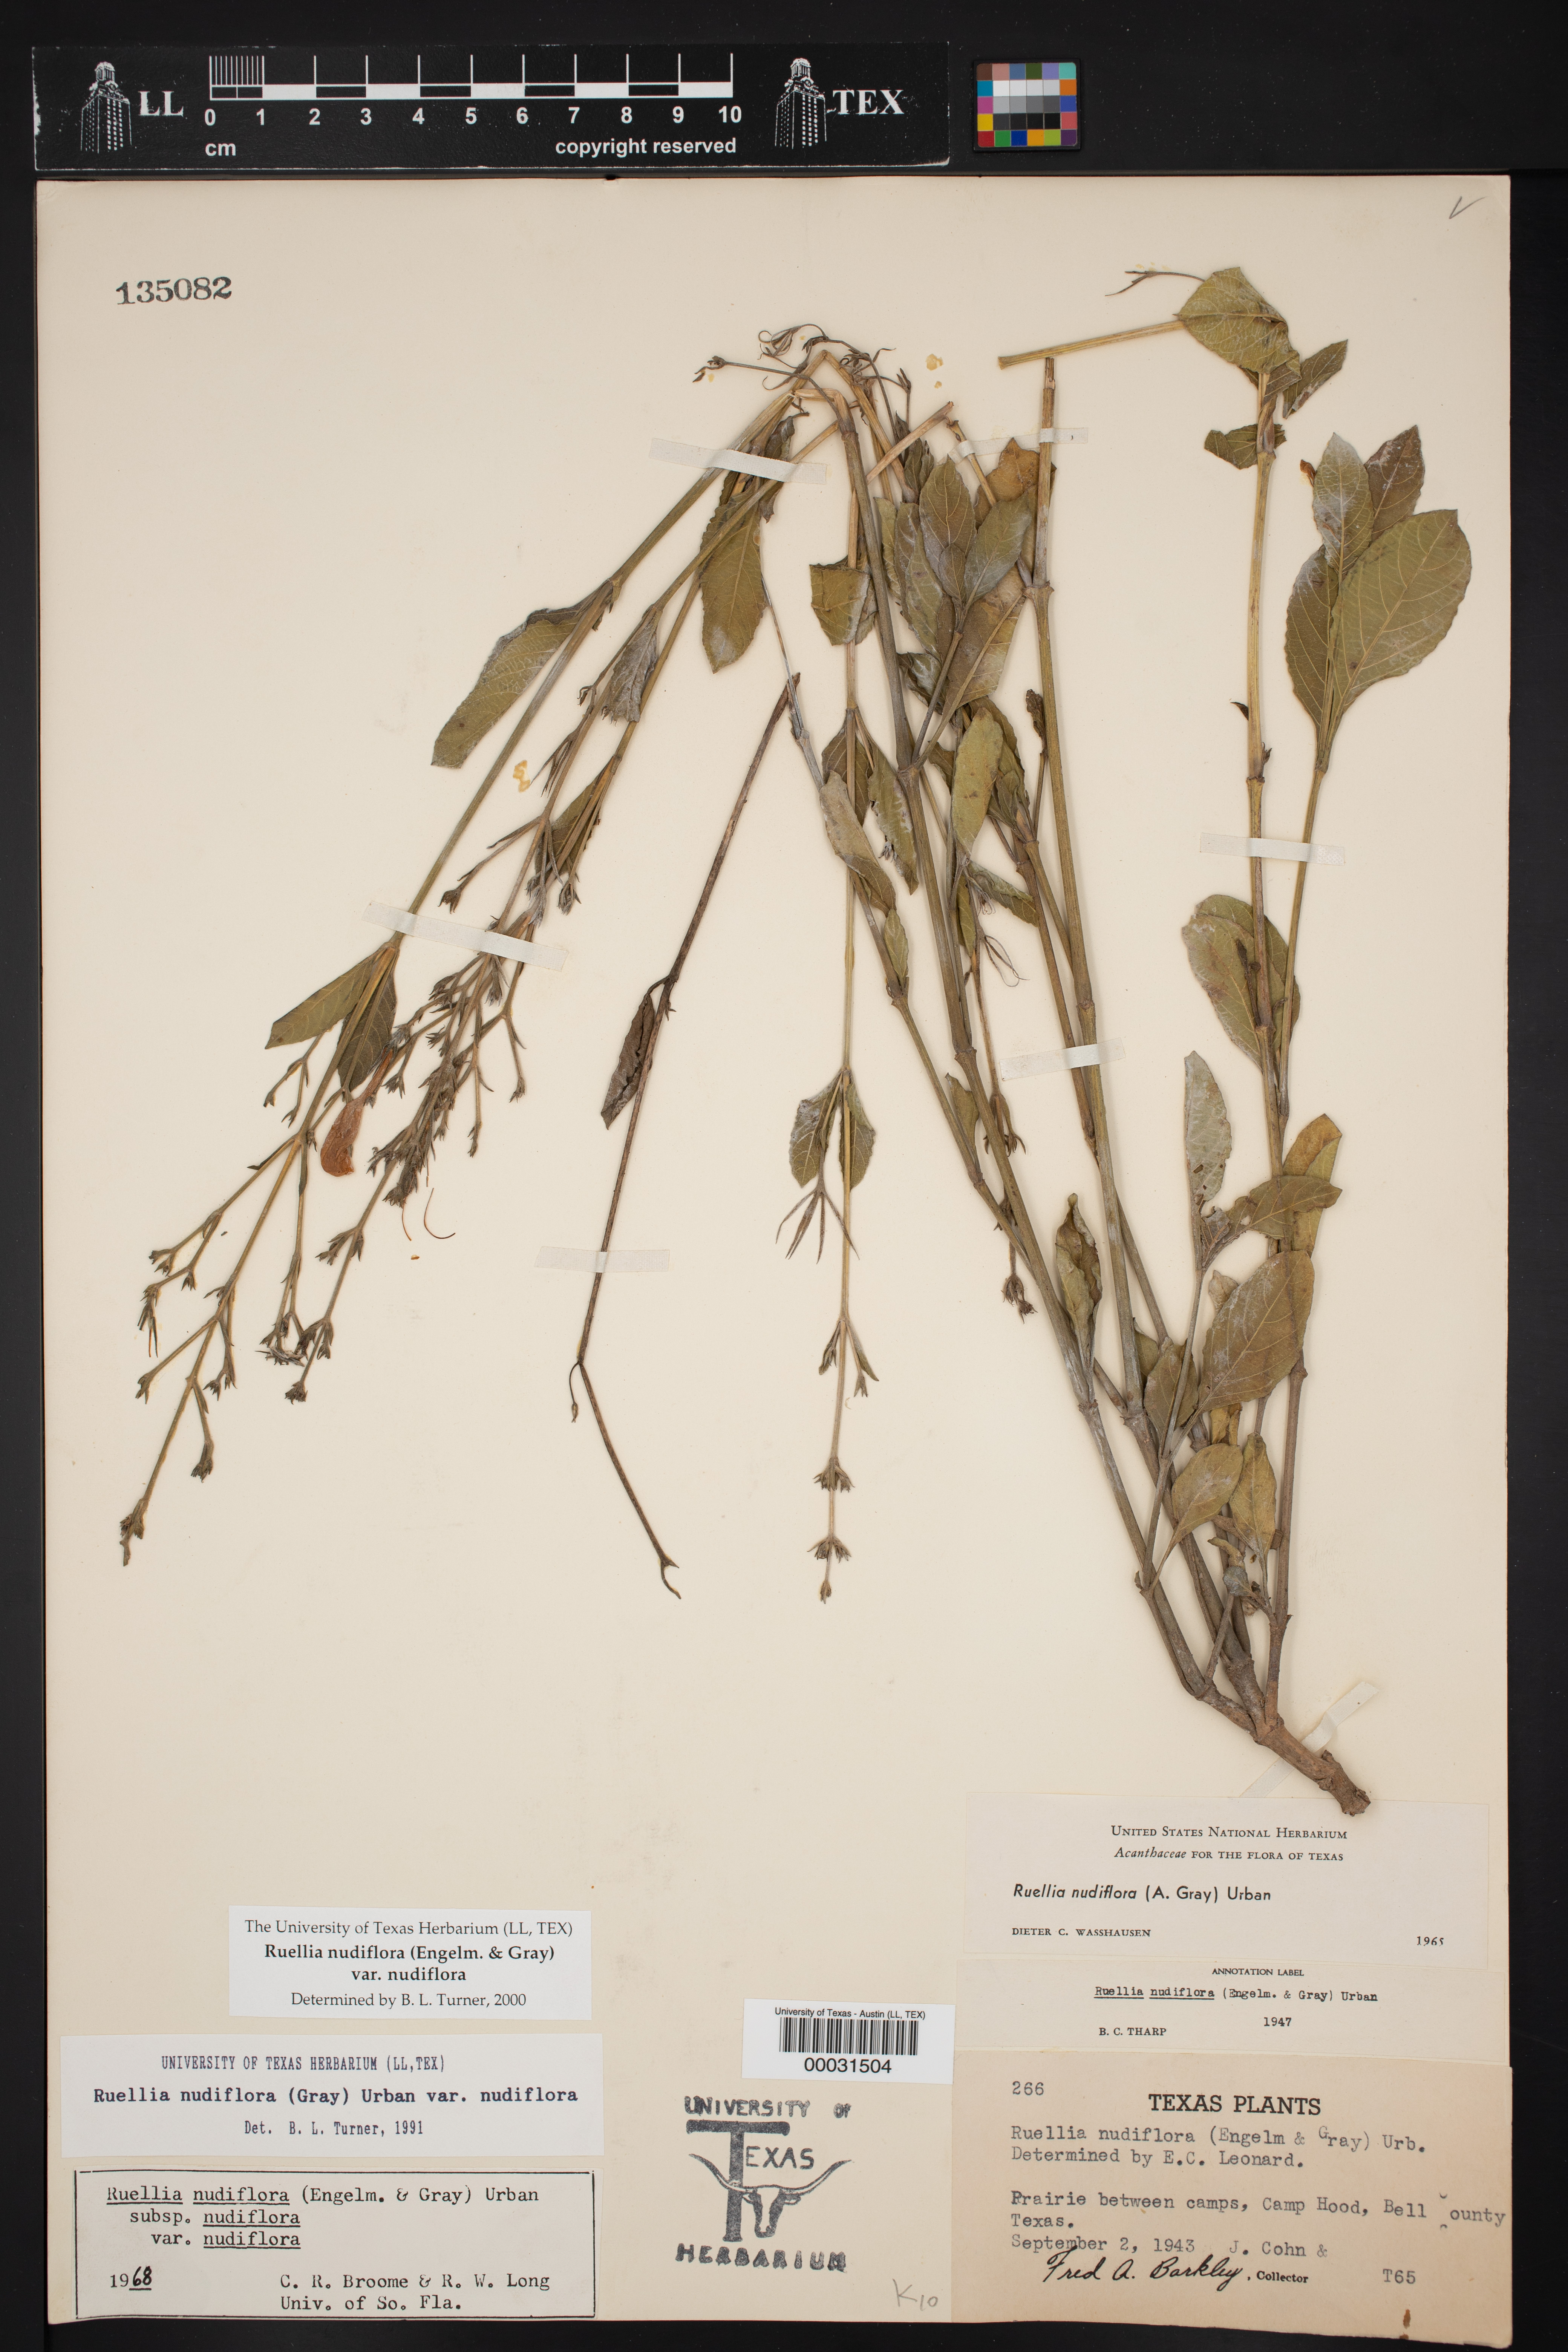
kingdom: Plantae
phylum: Tracheophyta
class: Magnoliopsida
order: Lamiales
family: Acanthaceae
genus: Ruellia
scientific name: Ruellia ciliatiflora
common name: Hairyflower wild petunia
